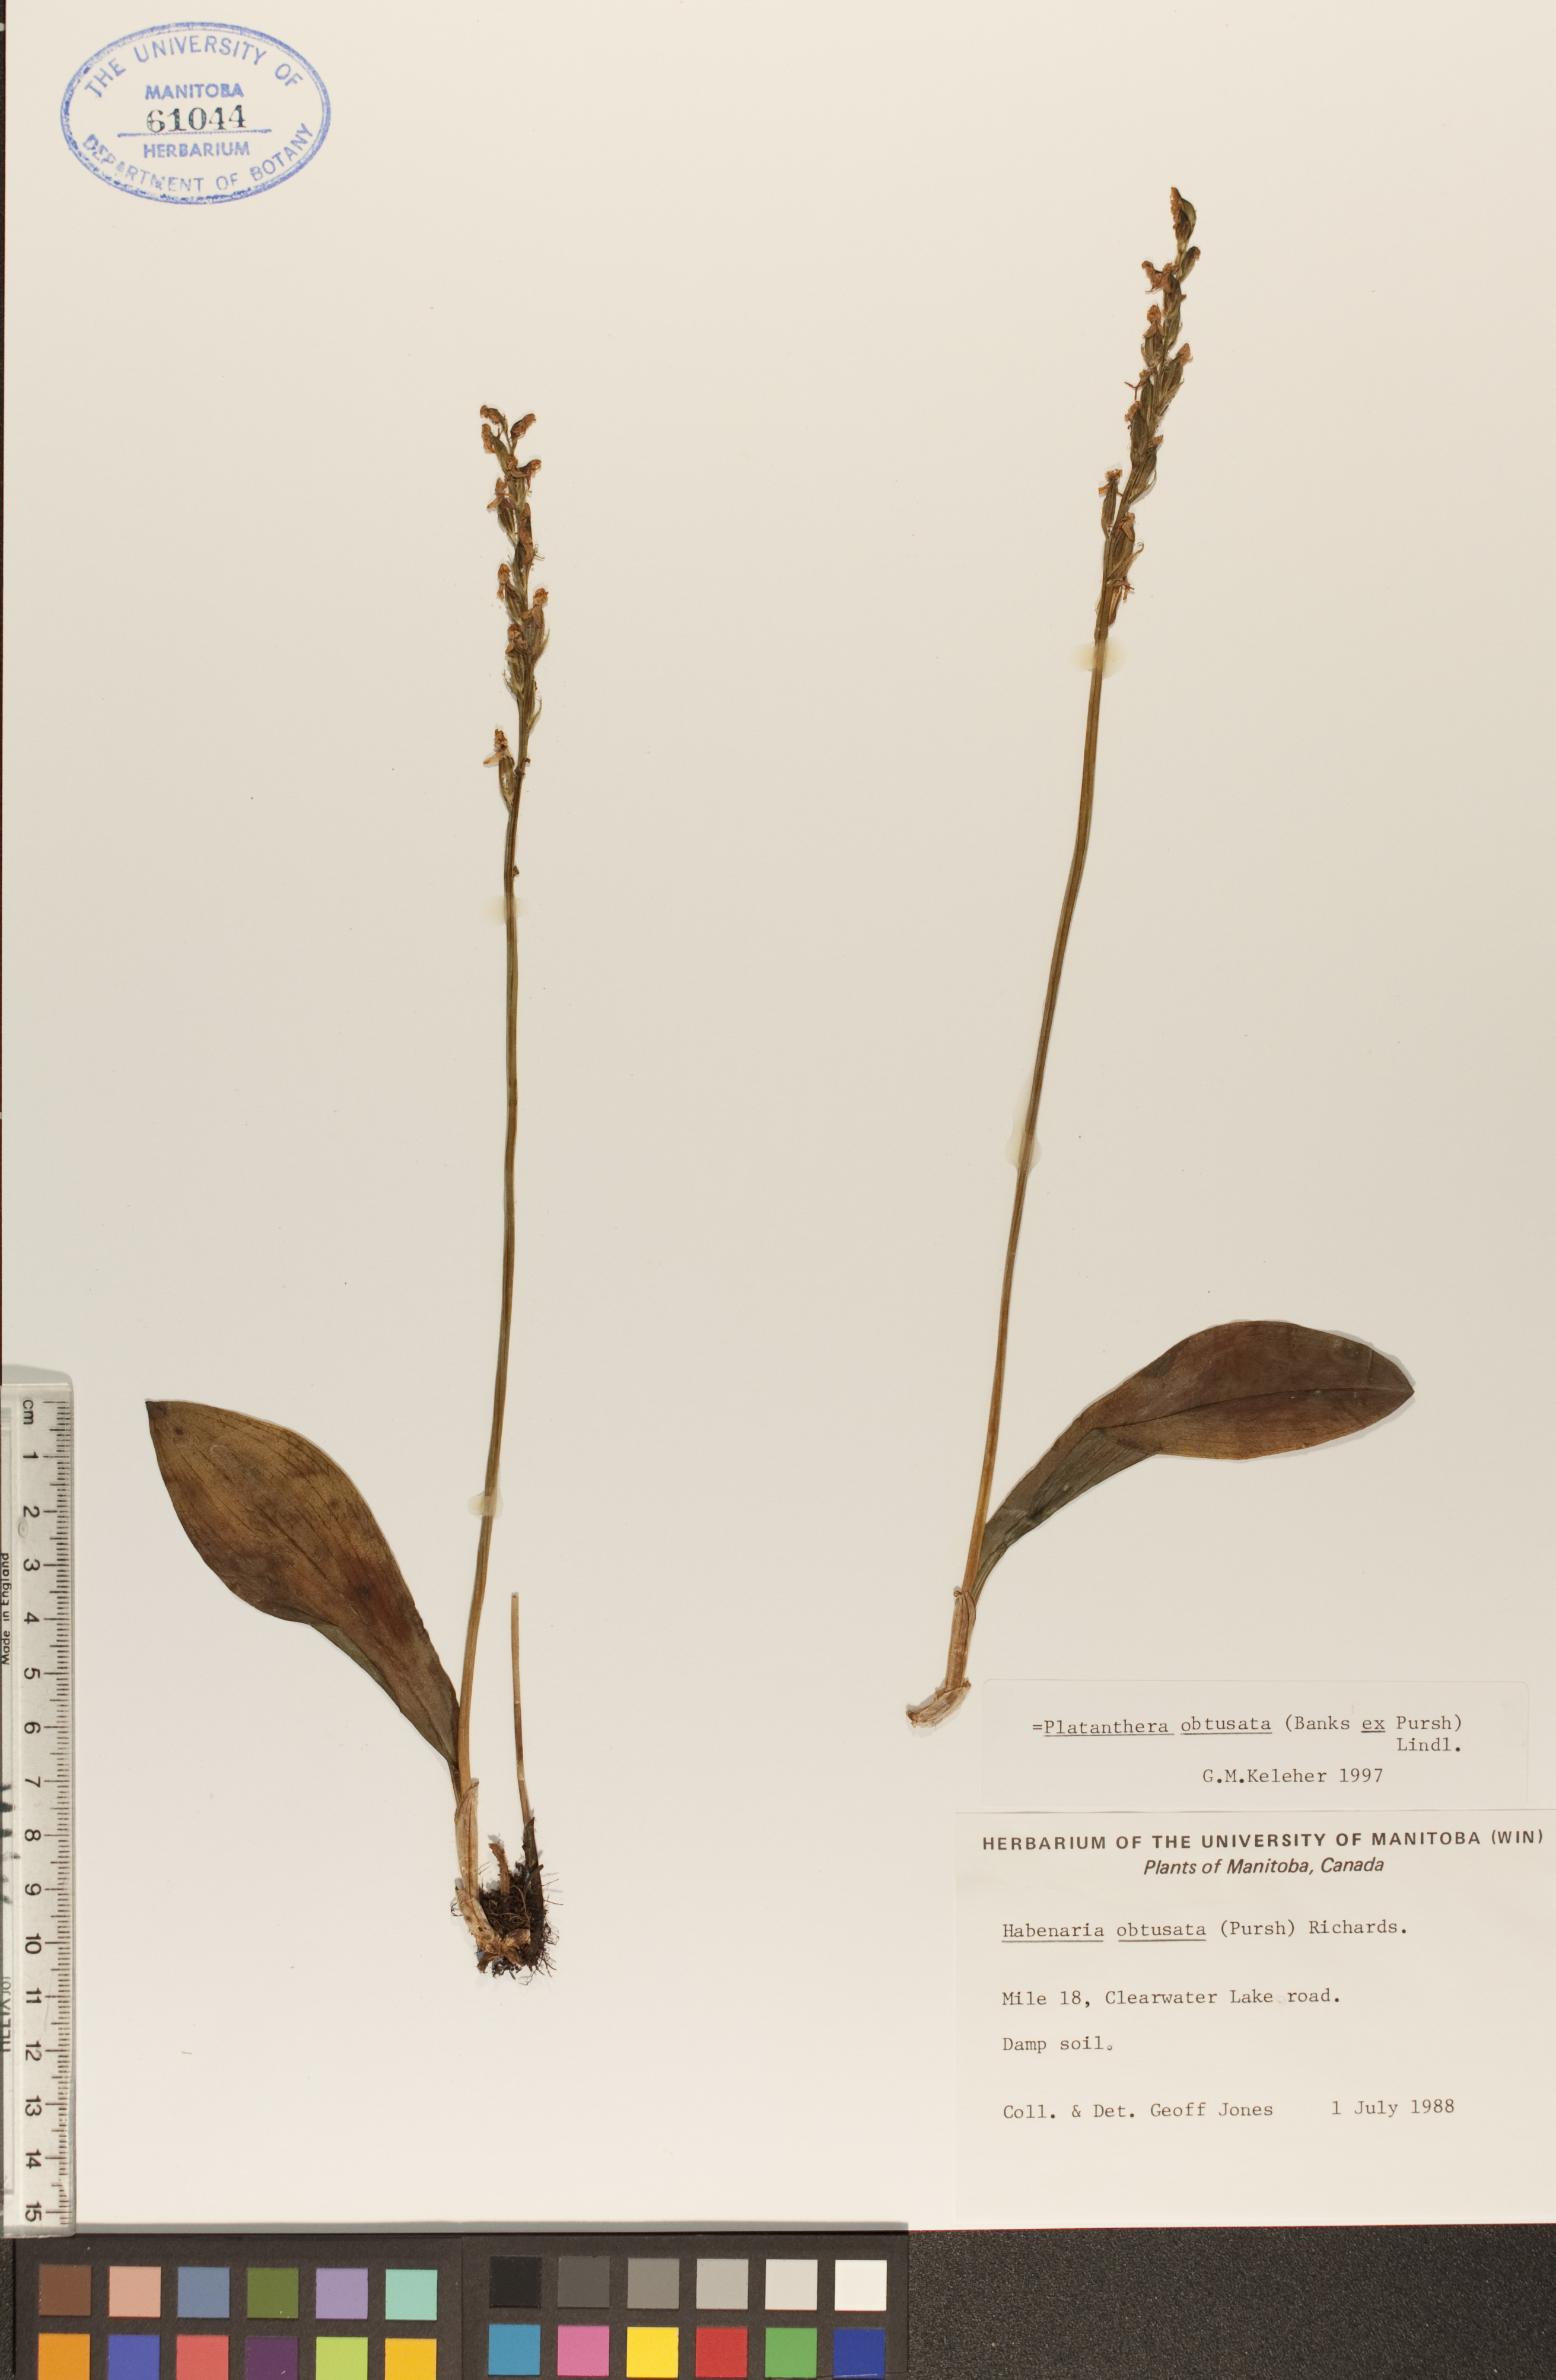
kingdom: Plantae
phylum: Tracheophyta
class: Liliopsida
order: Asparagales
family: Orchidaceae
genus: Platanthera
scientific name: Platanthera obtusata
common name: Blunt bog orchid
